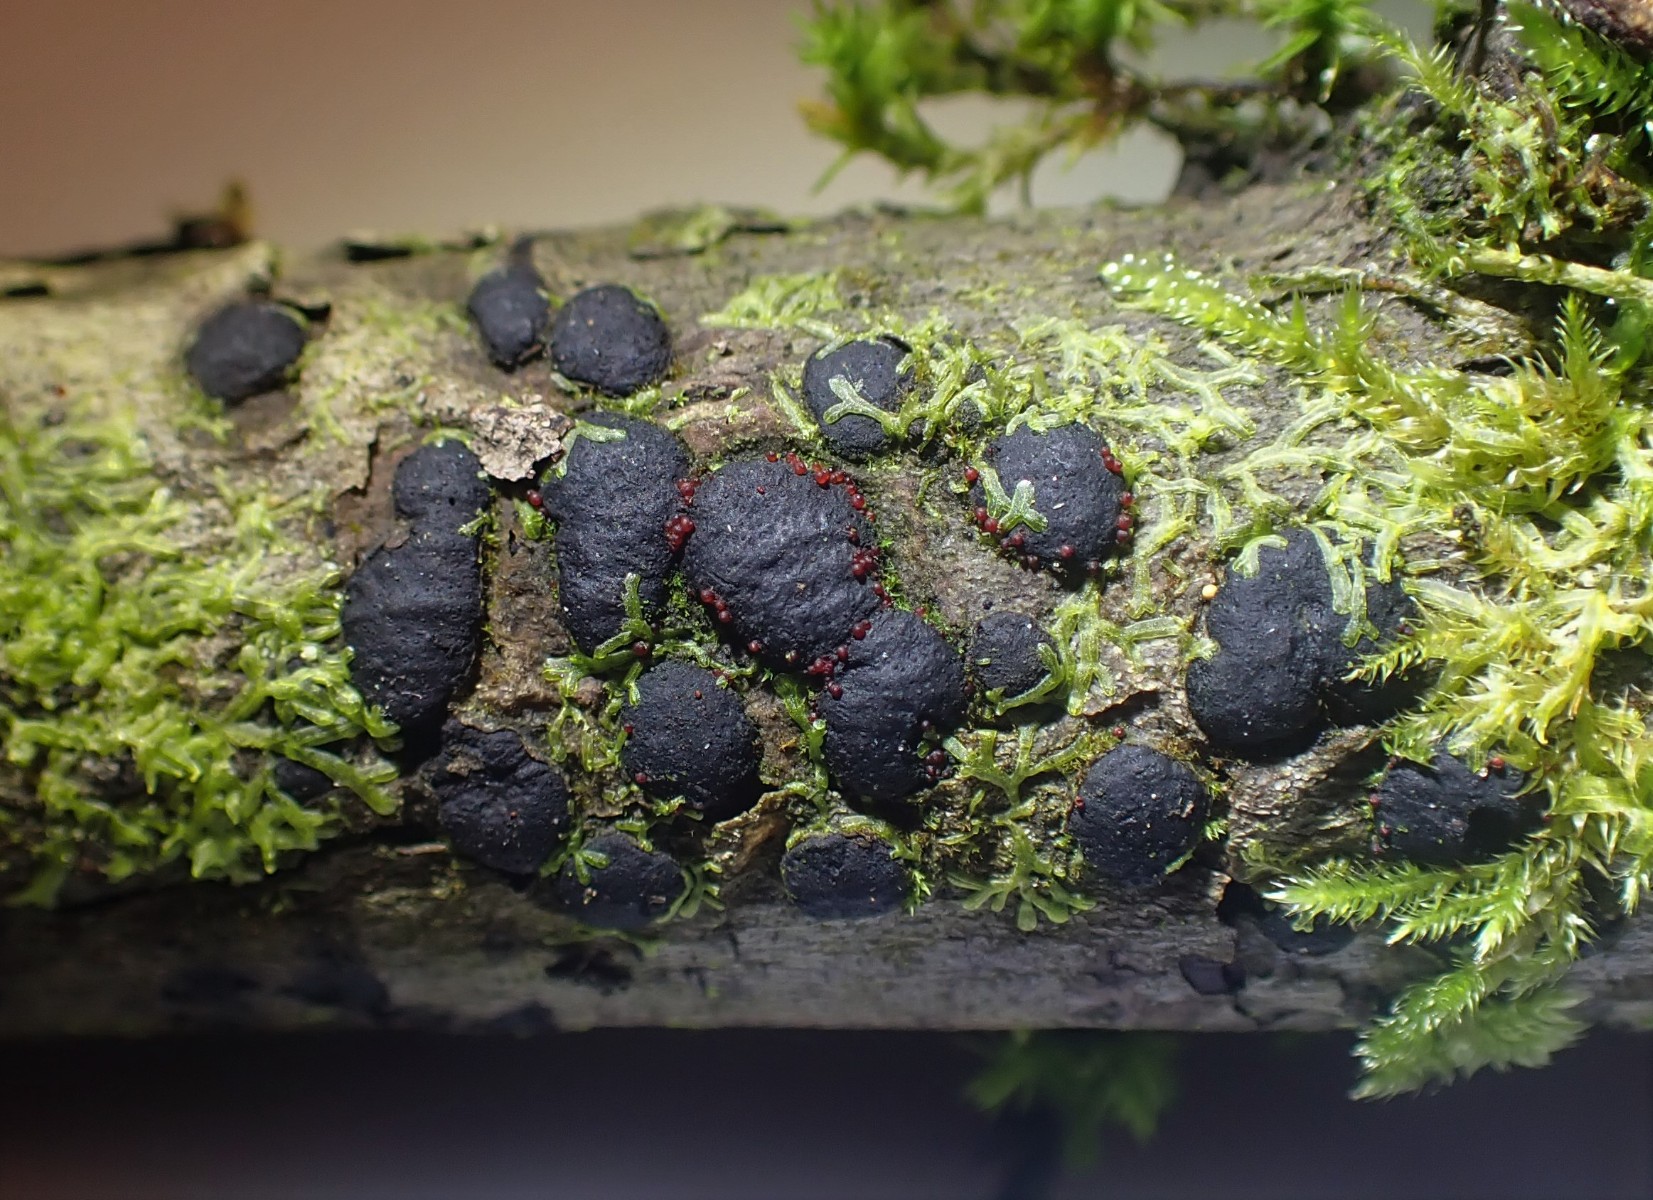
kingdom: Fungi
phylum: Ascomycota
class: Sordariomycetes
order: Xylariales
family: Diatrypaceae
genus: Diatrype
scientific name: Diatrype bullata
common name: pile-kulskorpe
